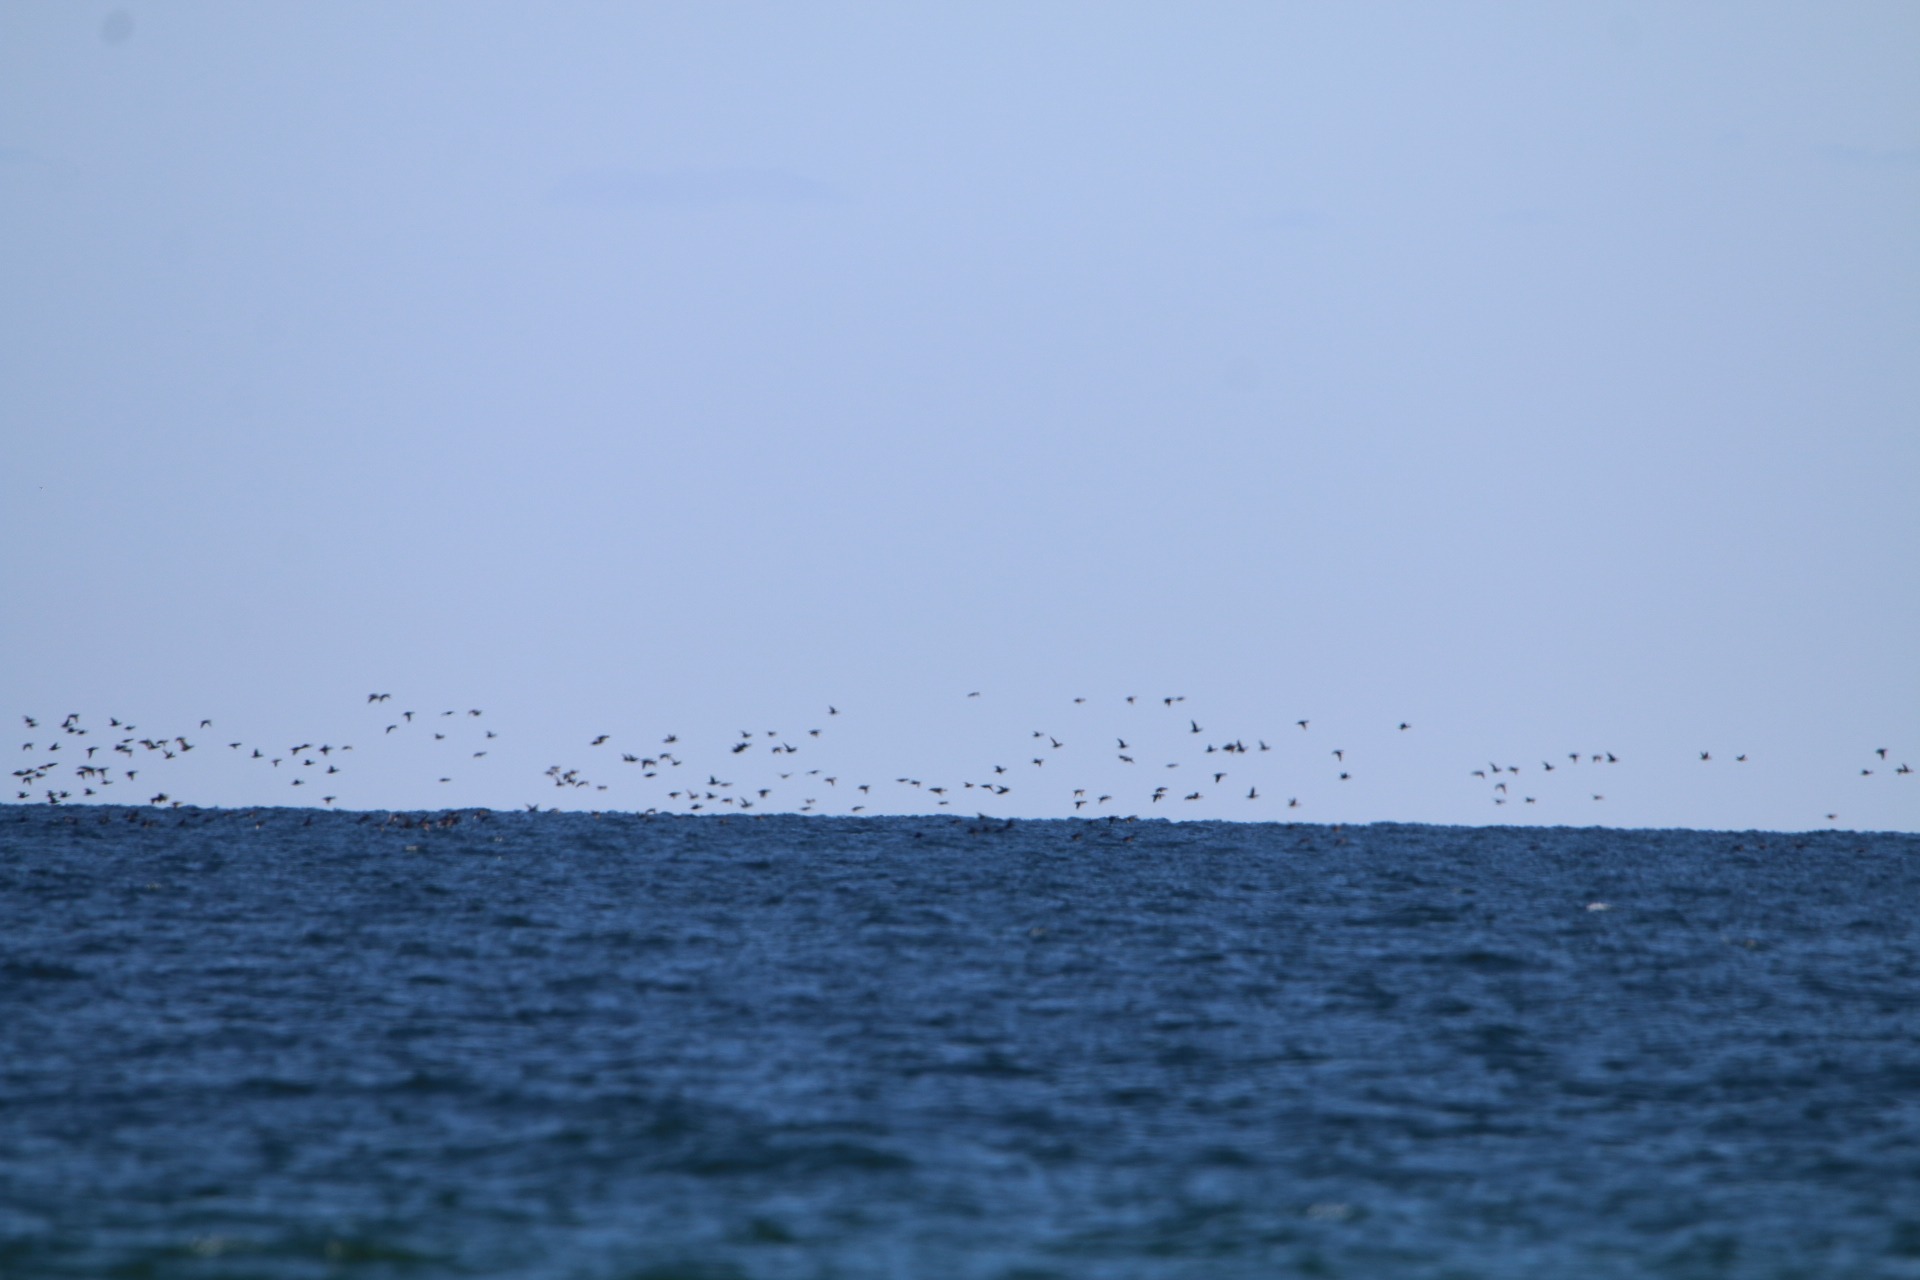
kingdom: Animalia
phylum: Chordata
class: Aves
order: Anseriformes
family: Anatidae
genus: Melanitta
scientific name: Melanitta nigra
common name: Sortand
